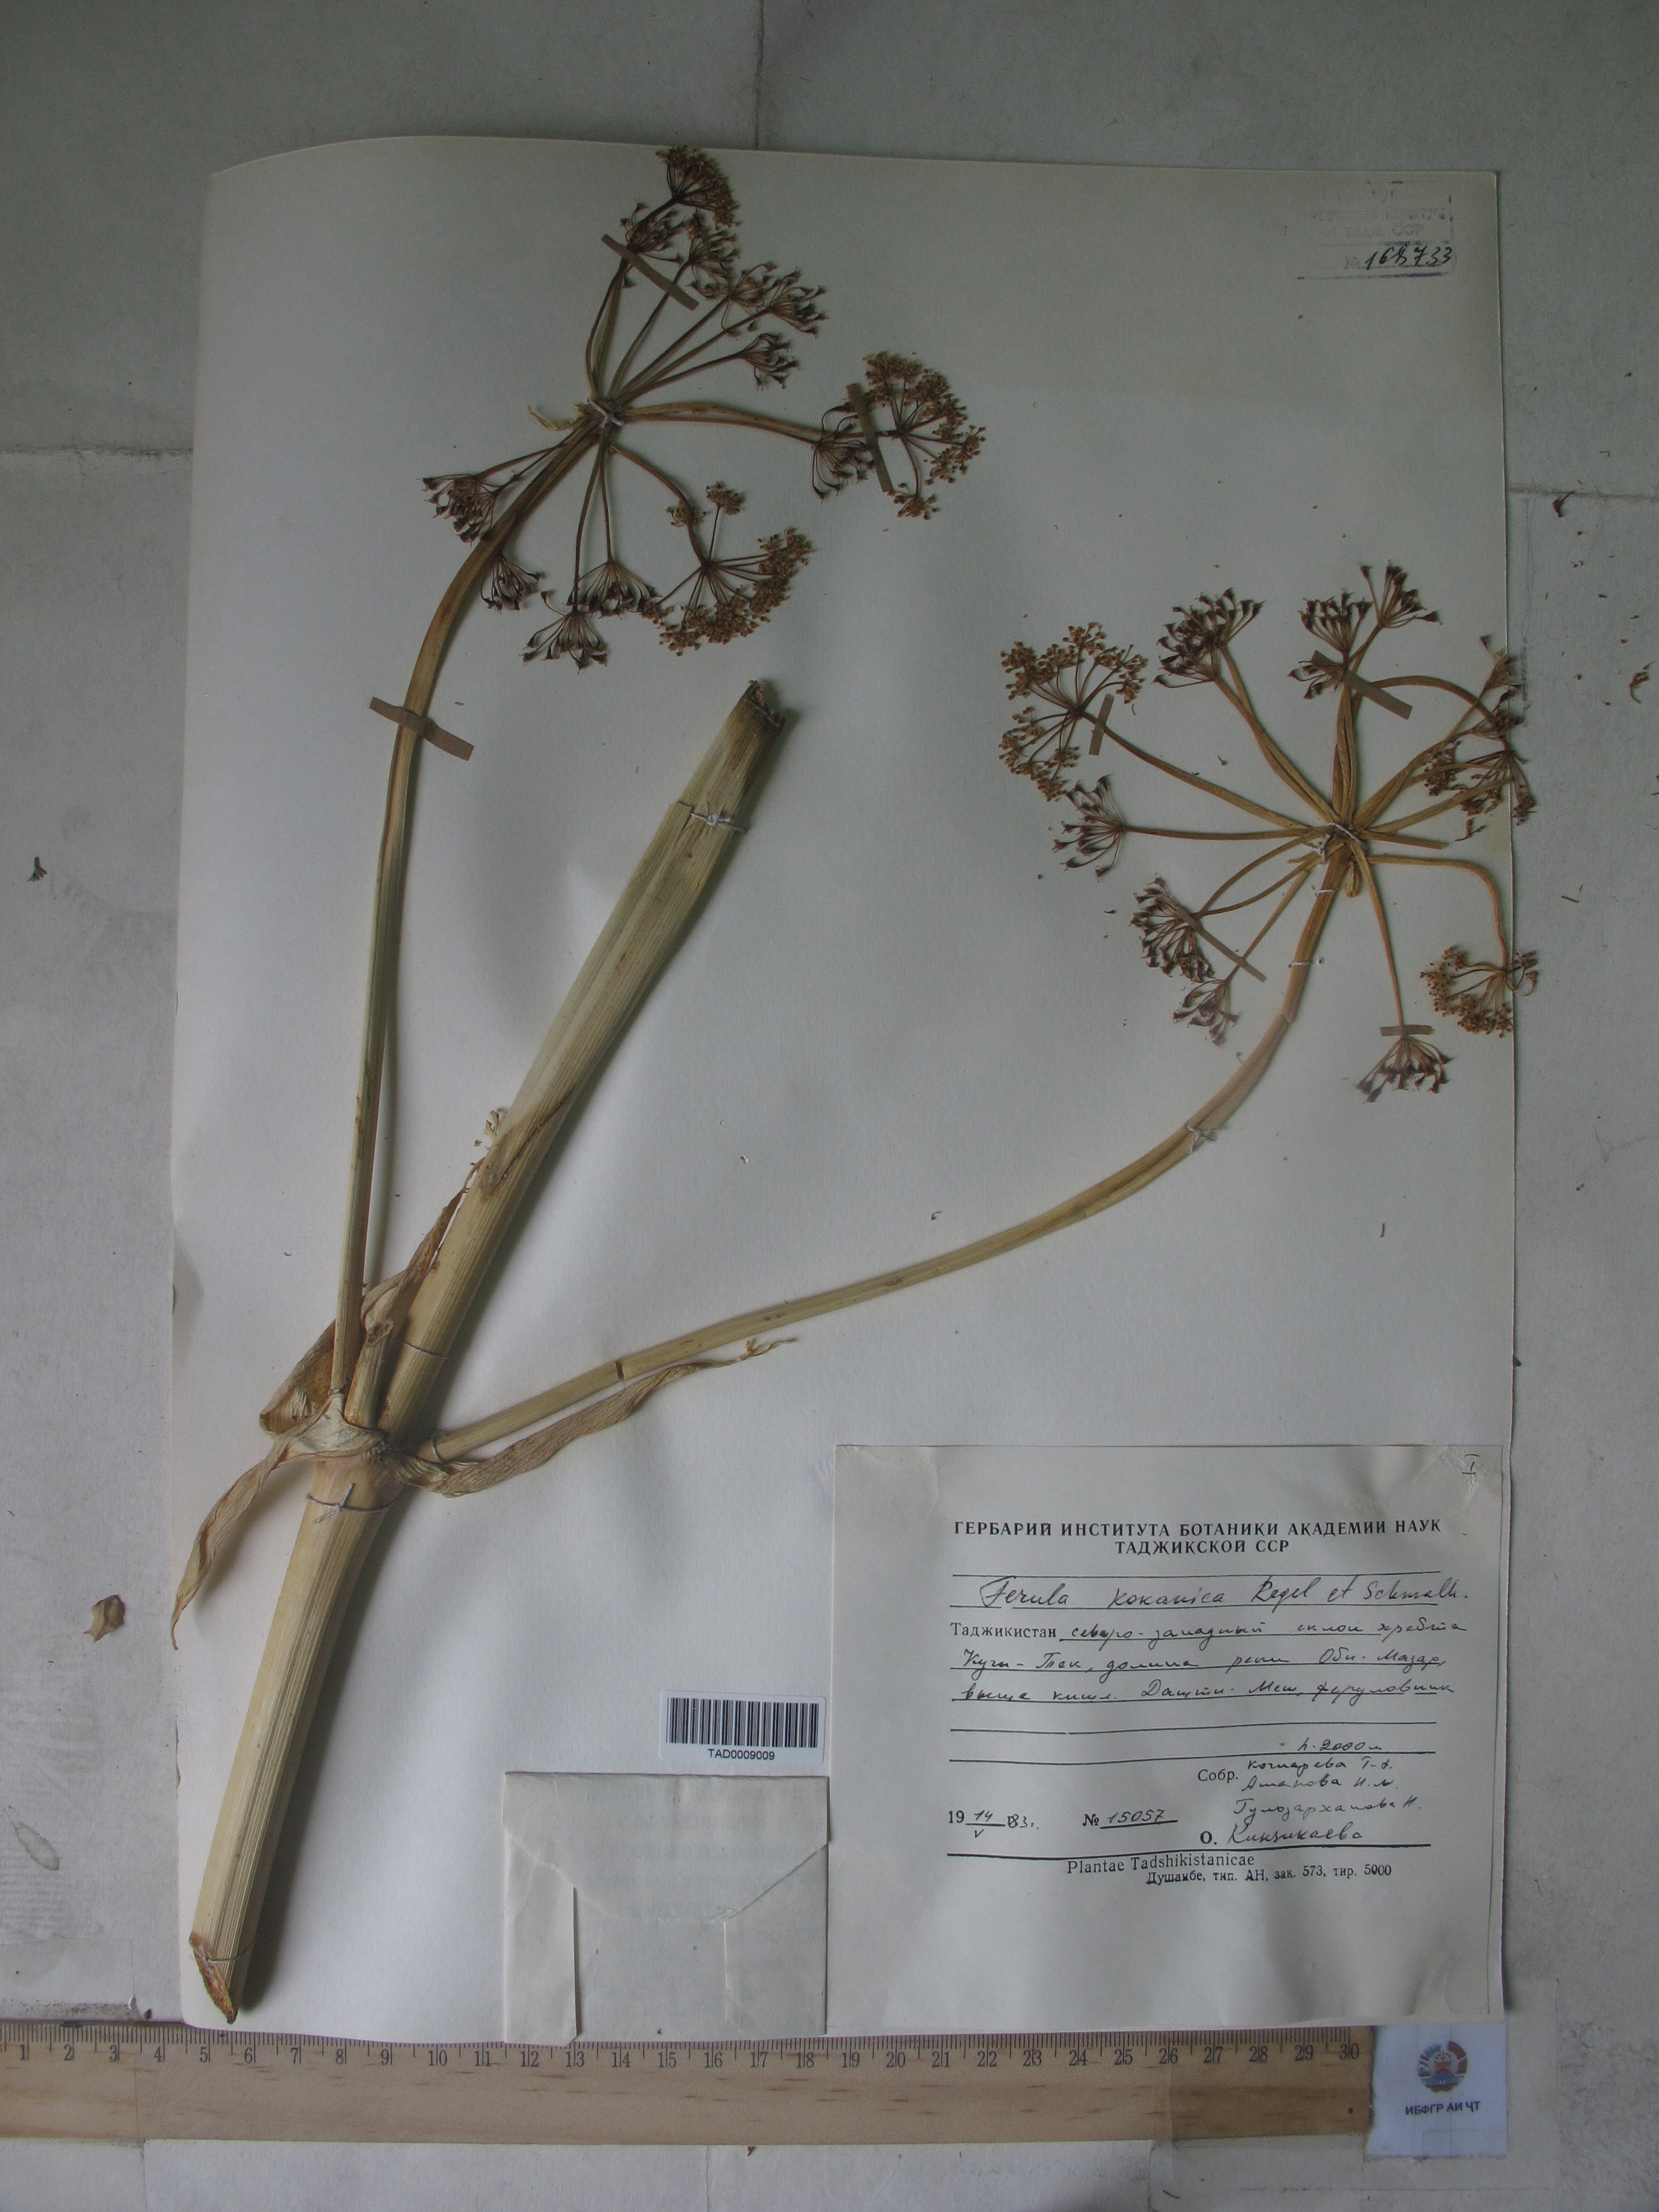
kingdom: Plantae
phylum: Tracheophyta
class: Magnoliopsida
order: Apiales
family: Apiaceae
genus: Ferula
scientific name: Ferula kokanica
